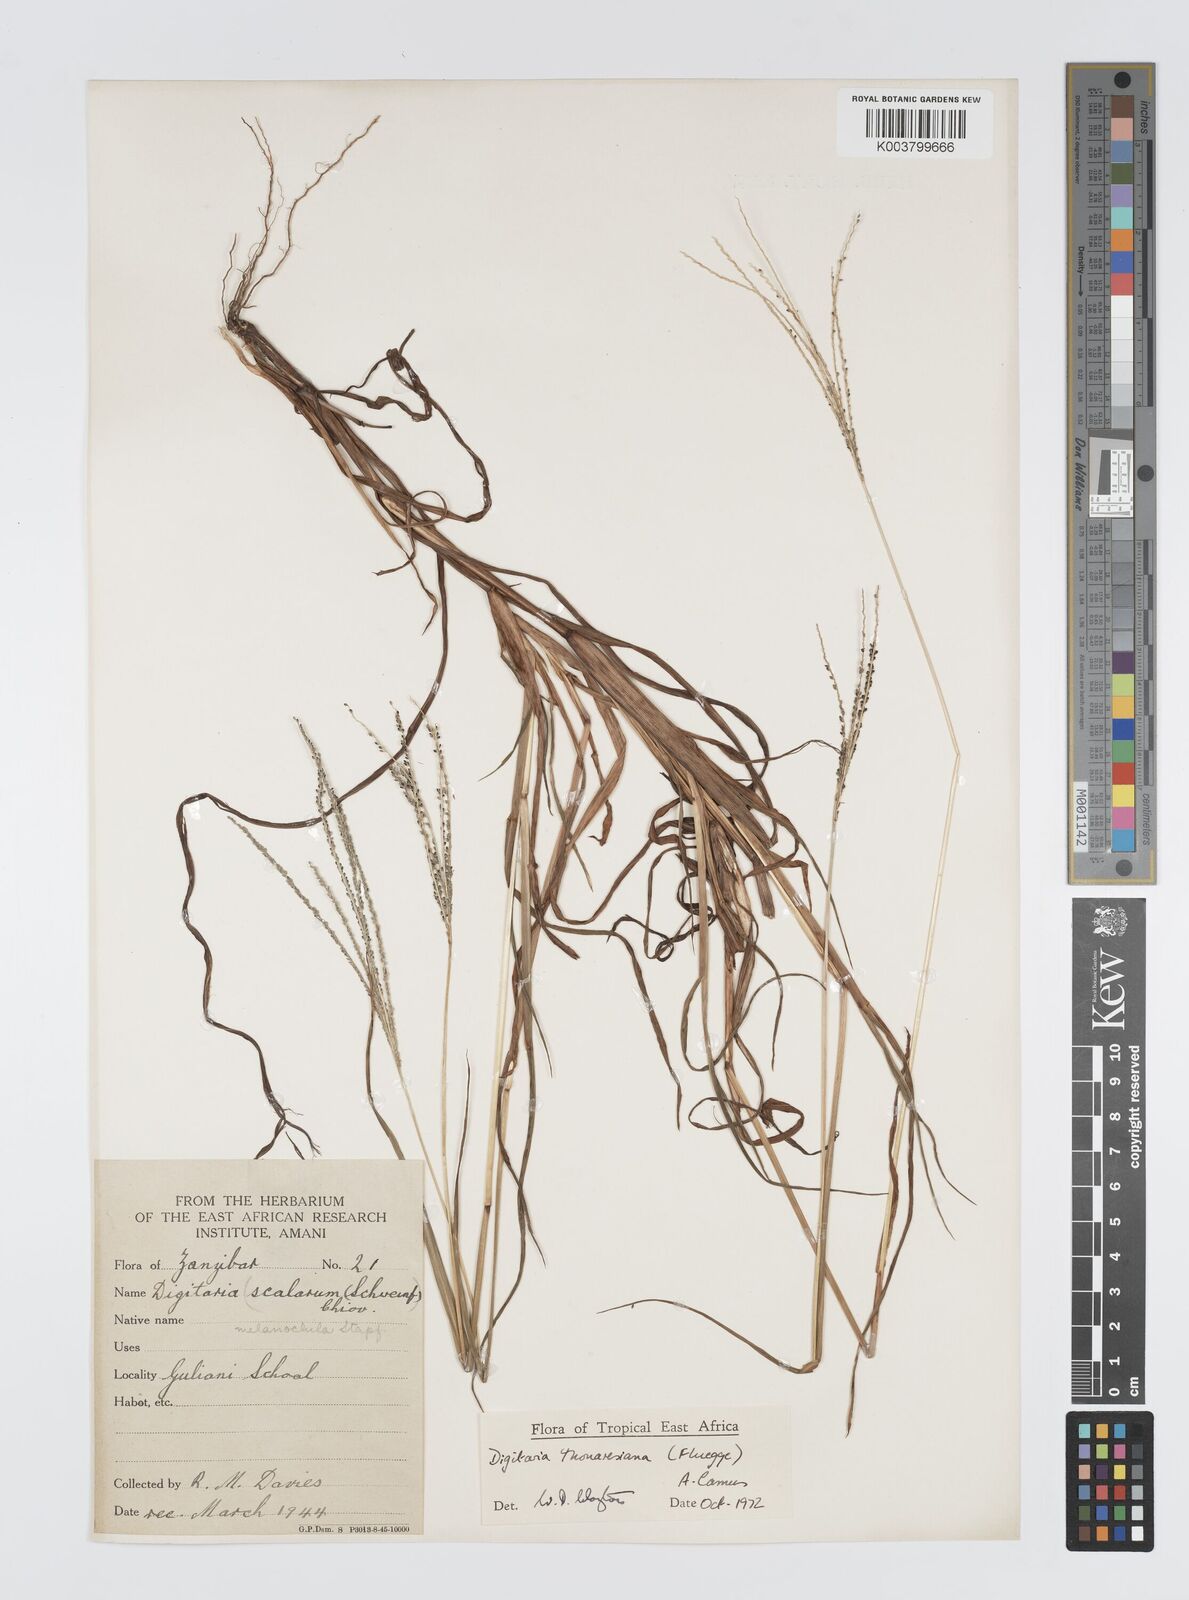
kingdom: Plantae
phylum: Tracheophyta
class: Liliopsida
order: Poales
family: Poaceae
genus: Digitaria
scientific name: Digitaria thouarsiana
